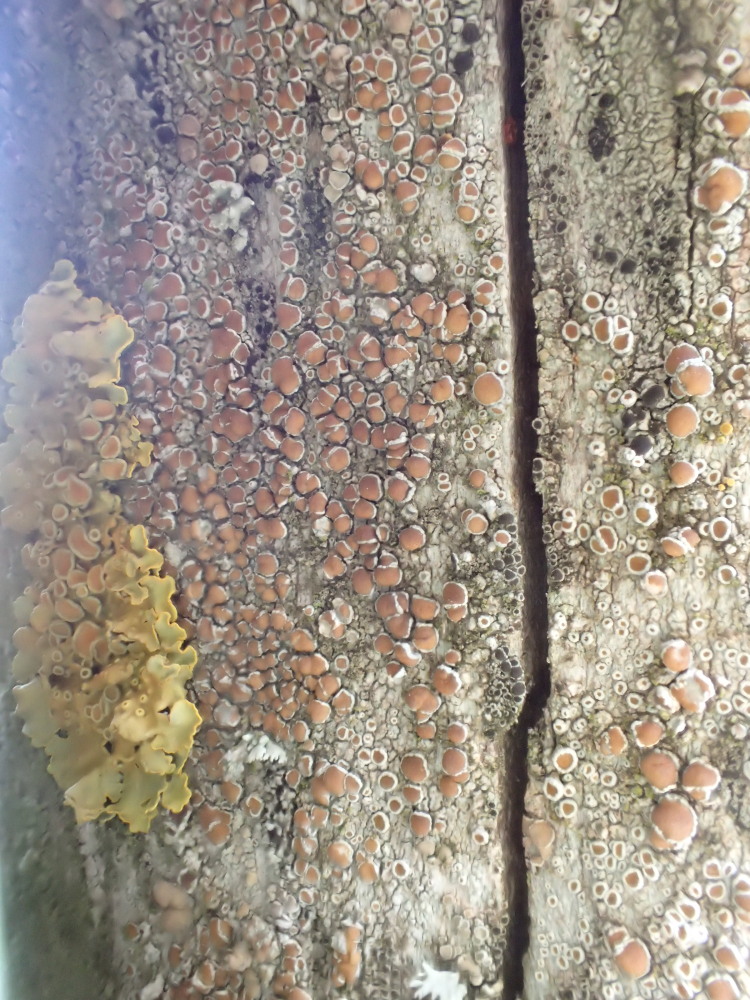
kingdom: Fungi
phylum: Ascomycota
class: Lecanoromycetes
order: Lecanorales
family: Lecanoraceae
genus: Lecanora
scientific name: Lecanora chlarotera
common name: brun kantskivelav
